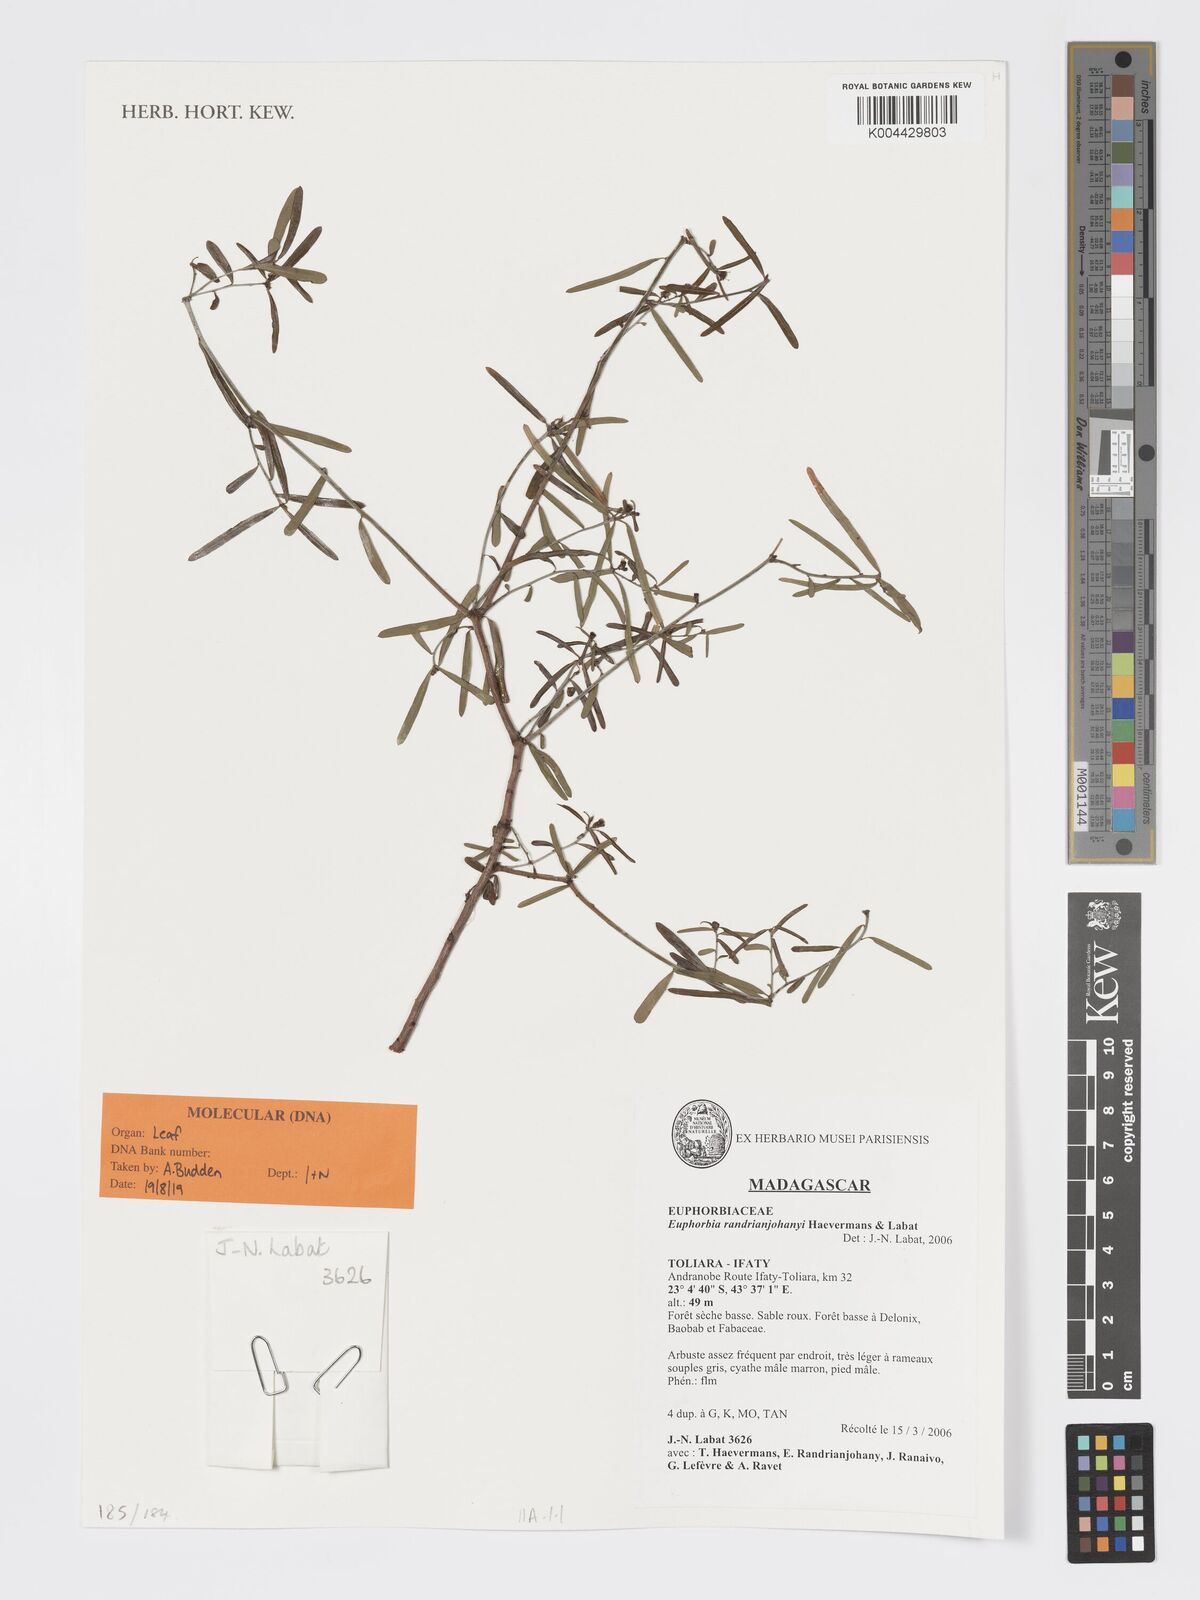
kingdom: Plantae
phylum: Tracheophyta
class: Magnoliopsida
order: Malpighiales
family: Euphorbiaceae
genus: Euphorbia
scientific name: Euphorbia randrianijohanyi
